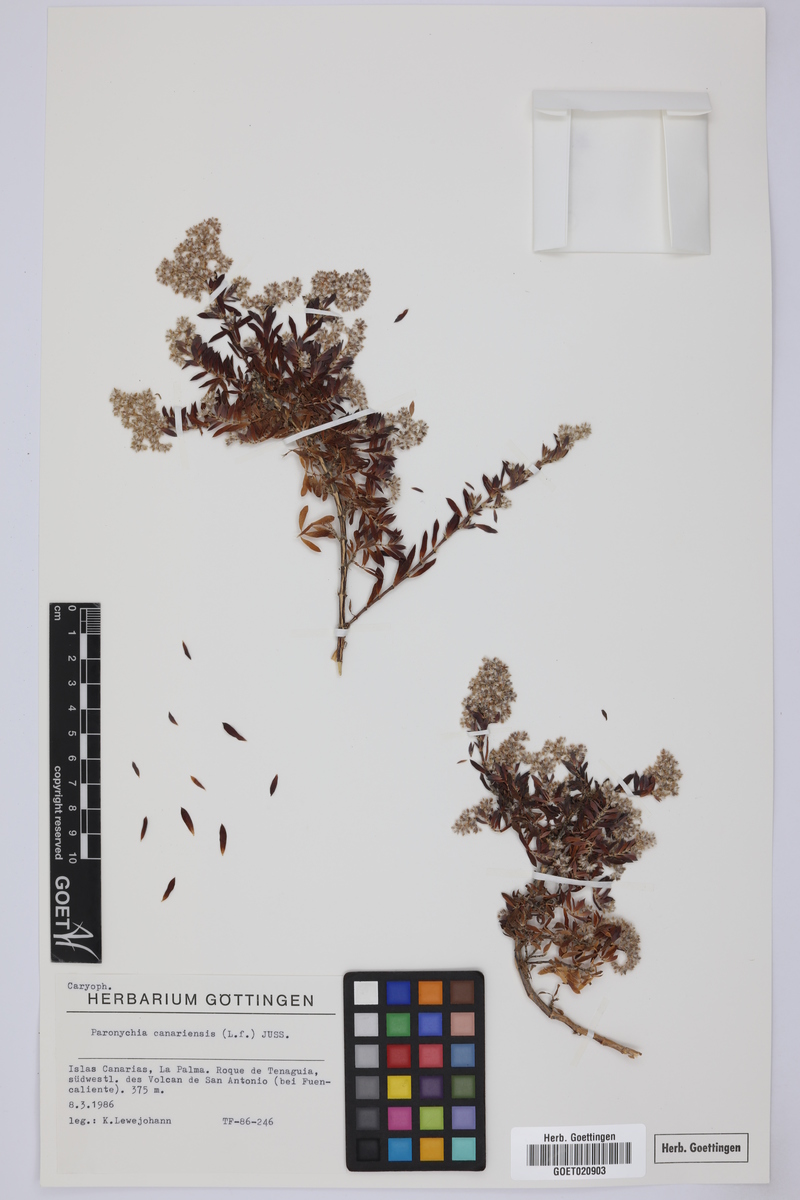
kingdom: Plantae
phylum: Tracheophyta
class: Magnoliopsida
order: Caryophyllales
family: Caryophyllaceae
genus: Paronychia
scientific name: Paronychia canariensis
